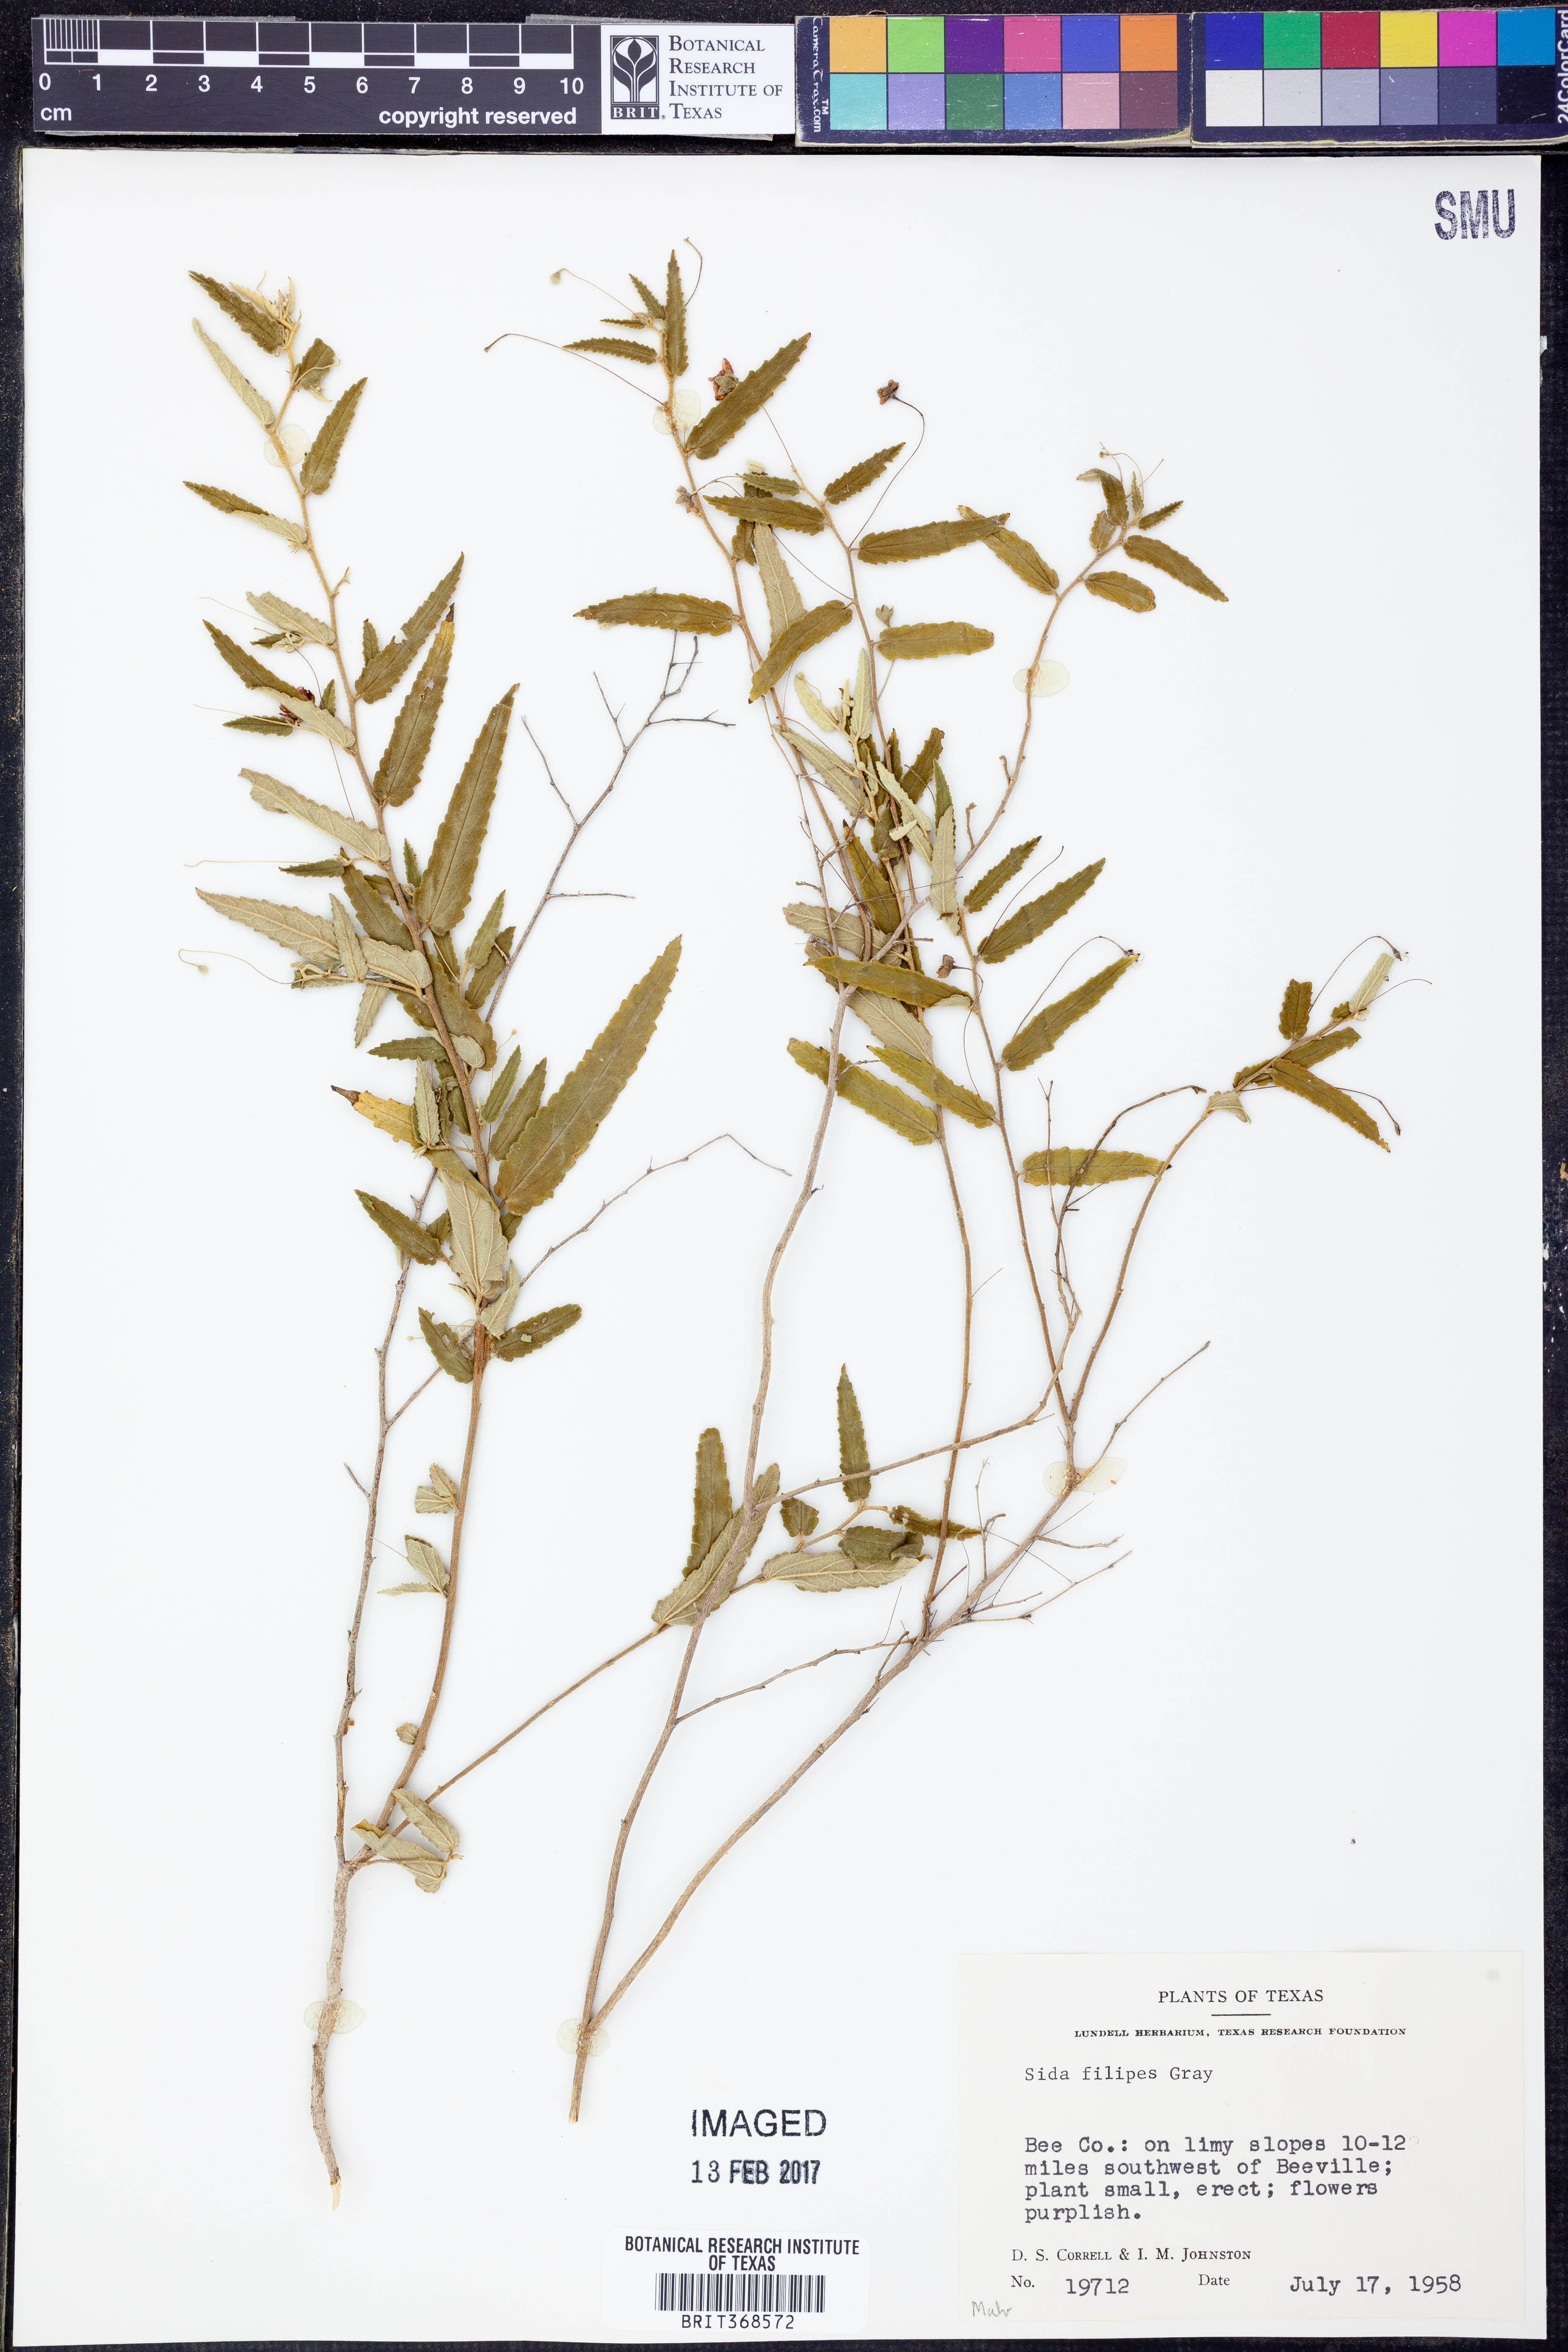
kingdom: Plantae
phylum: Tracheophyta
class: Magnoliopsida
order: Malvales
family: Malvaceae
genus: Meximalva
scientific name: Meximalva filipes
